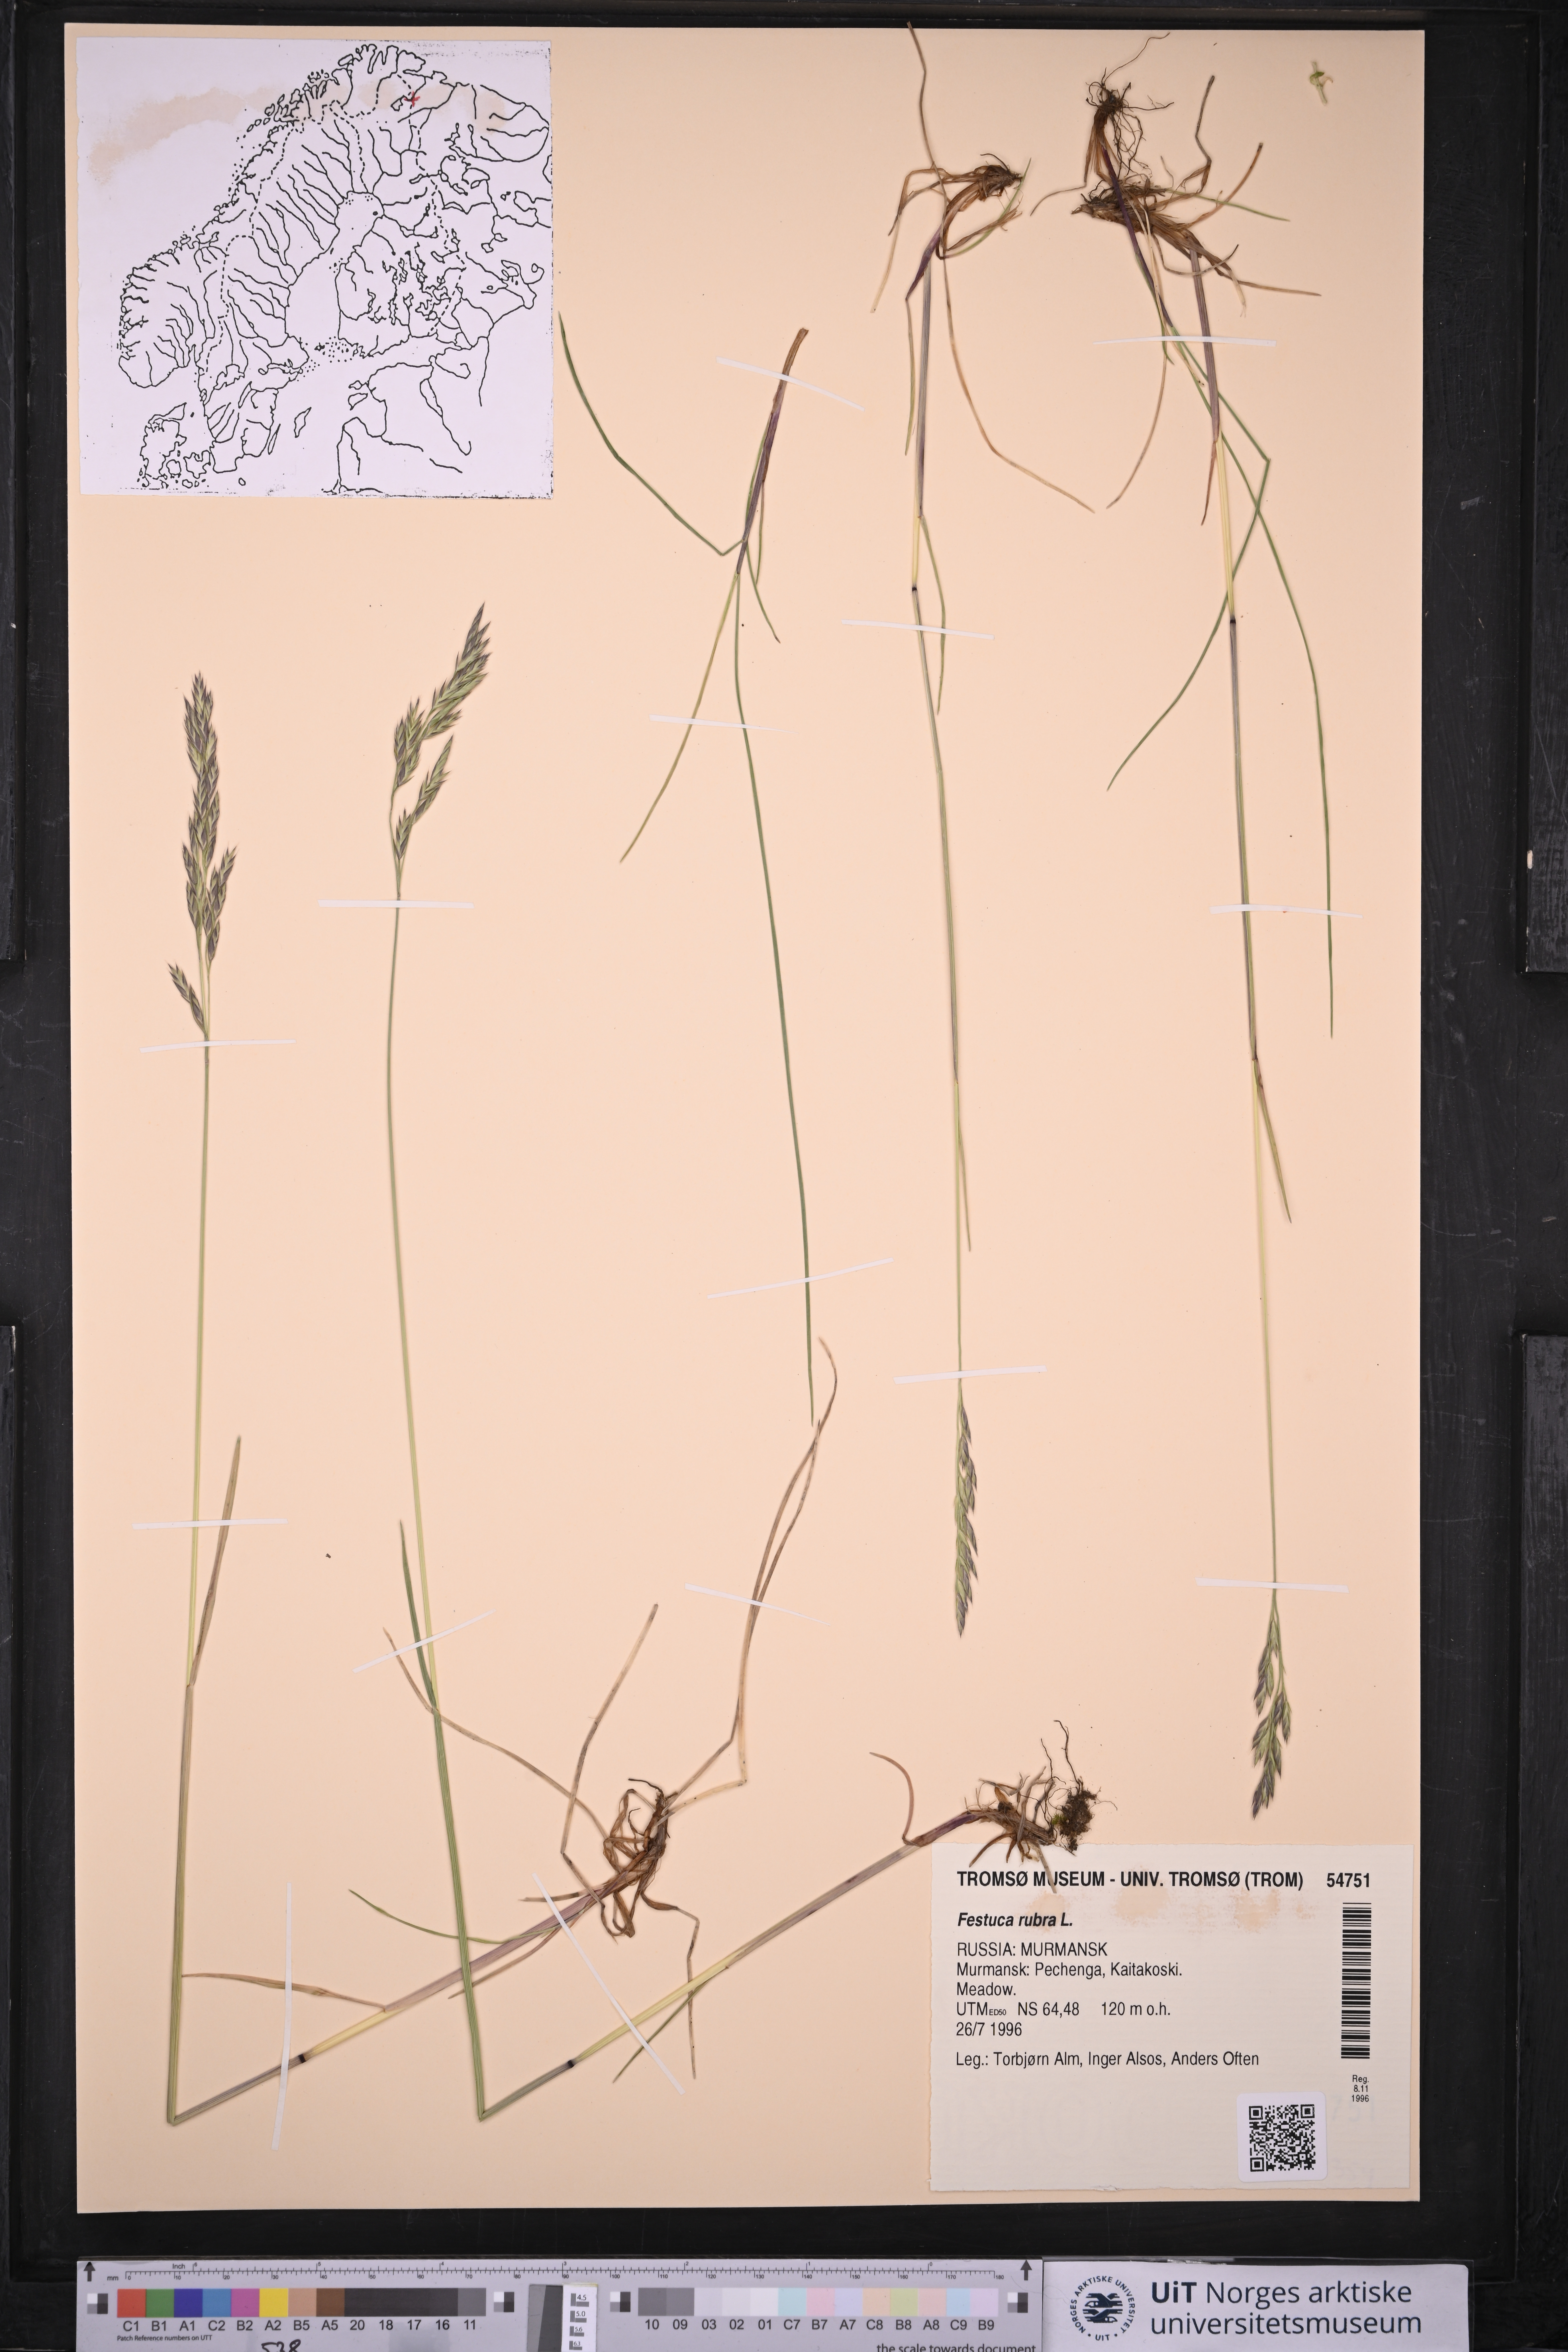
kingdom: Plantae
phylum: Tracheophyta
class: Liliopsida
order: Poales
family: Poaceae
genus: Festuca
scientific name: Festuca rubra
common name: Red fescue
